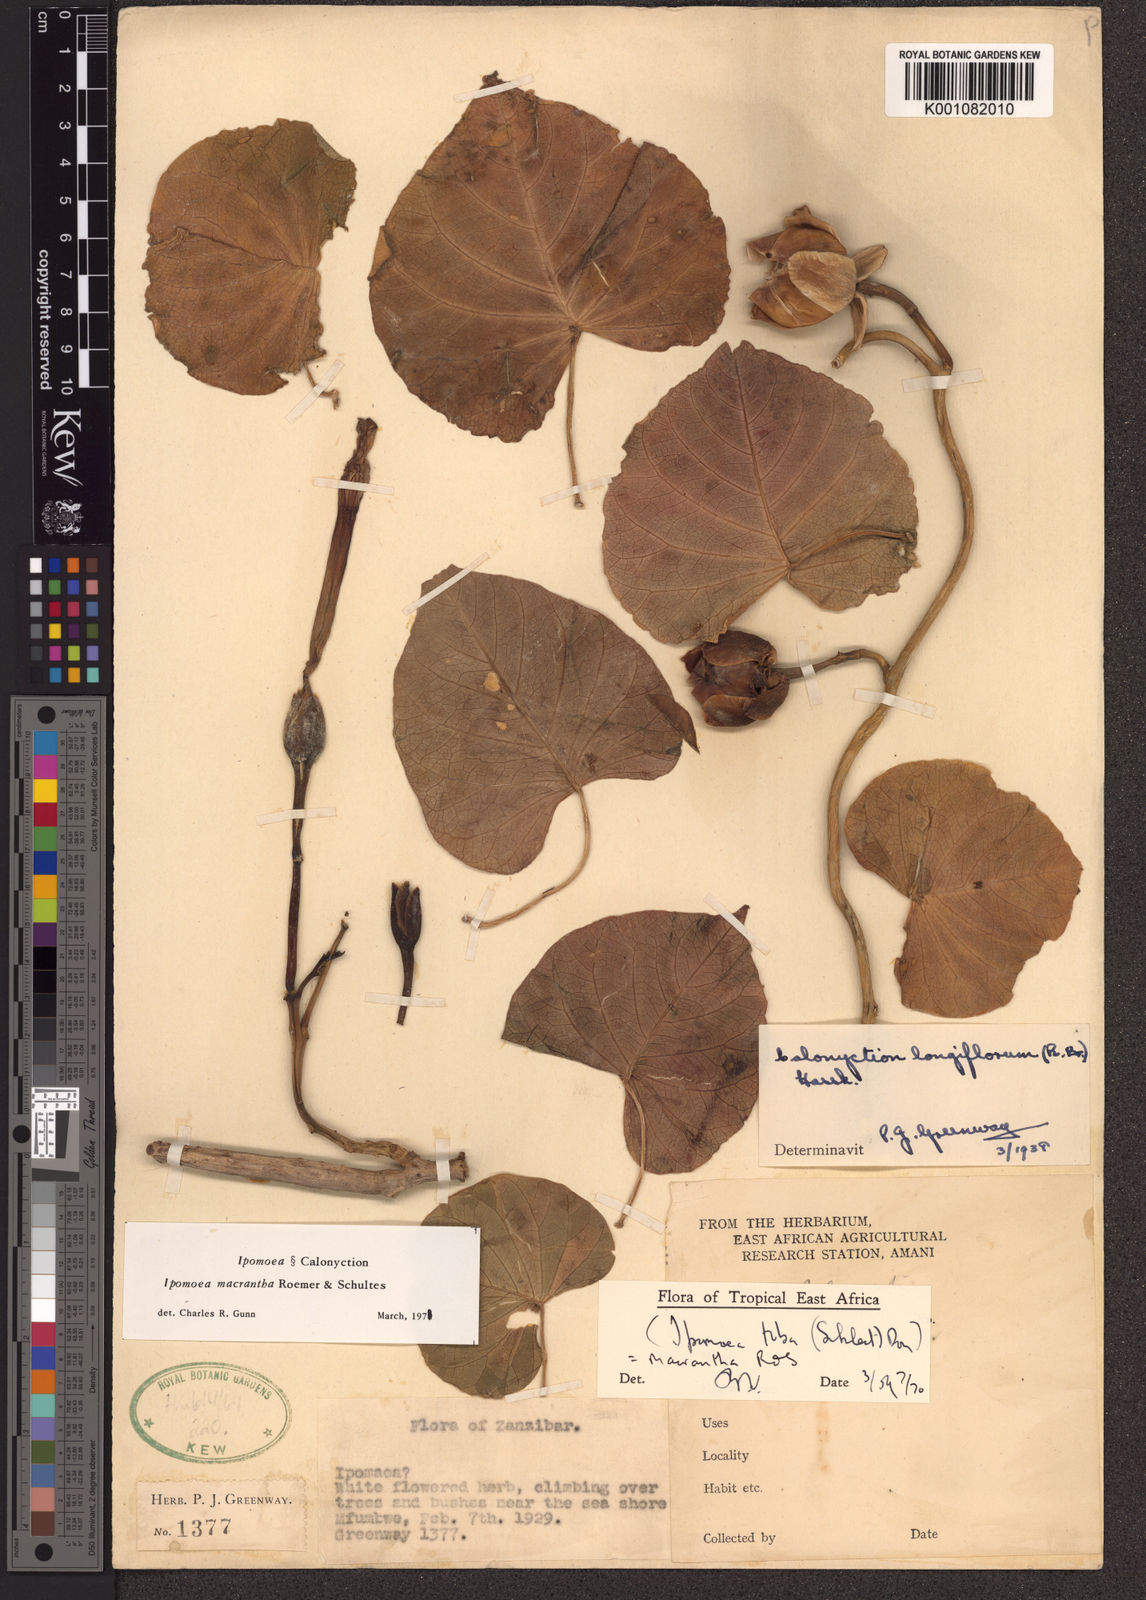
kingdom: Plantae
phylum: Tracheophyta
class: Magnoliopsida
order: Solanales
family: Convolvulaceae
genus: Ipomoea
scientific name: Ipomoea violacea
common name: Beach moonflower
